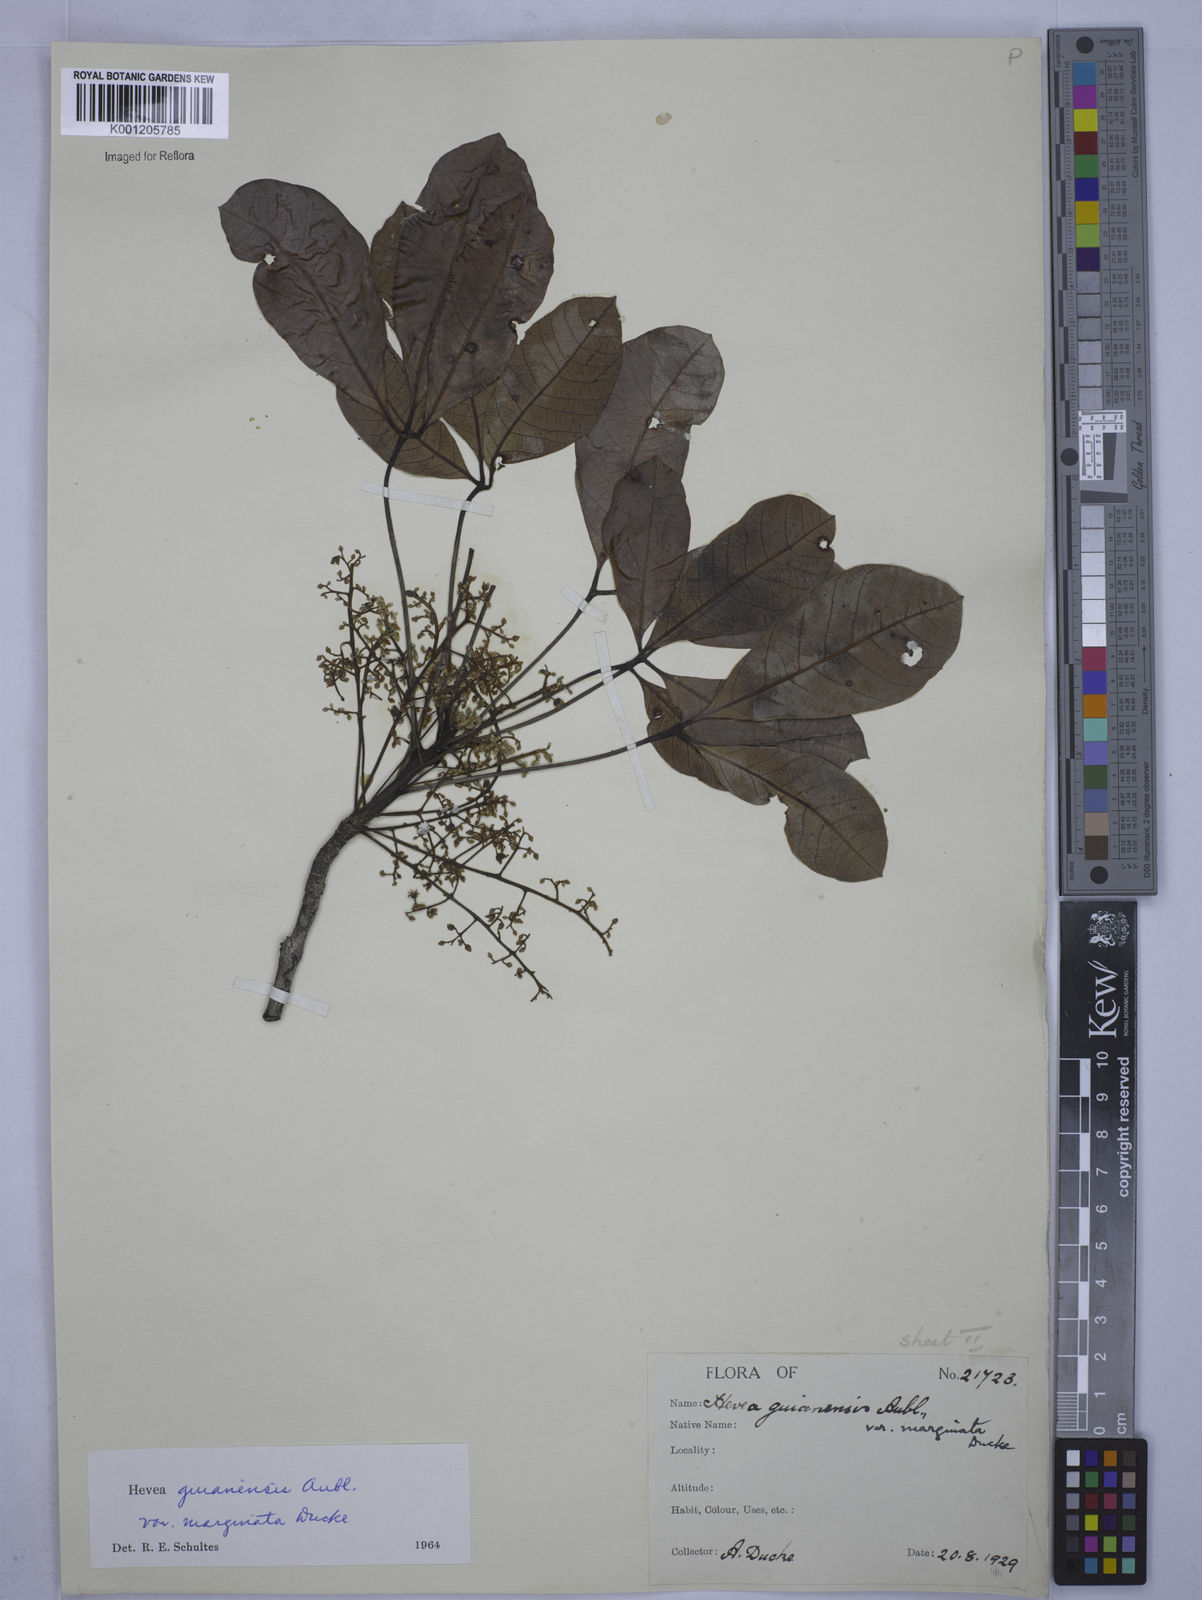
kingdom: Plantae
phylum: Tracheophyta
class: Magnoliopsida
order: Malpighiales
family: Euphorbiaceae
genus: Hevea
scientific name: Hevea guianensis
